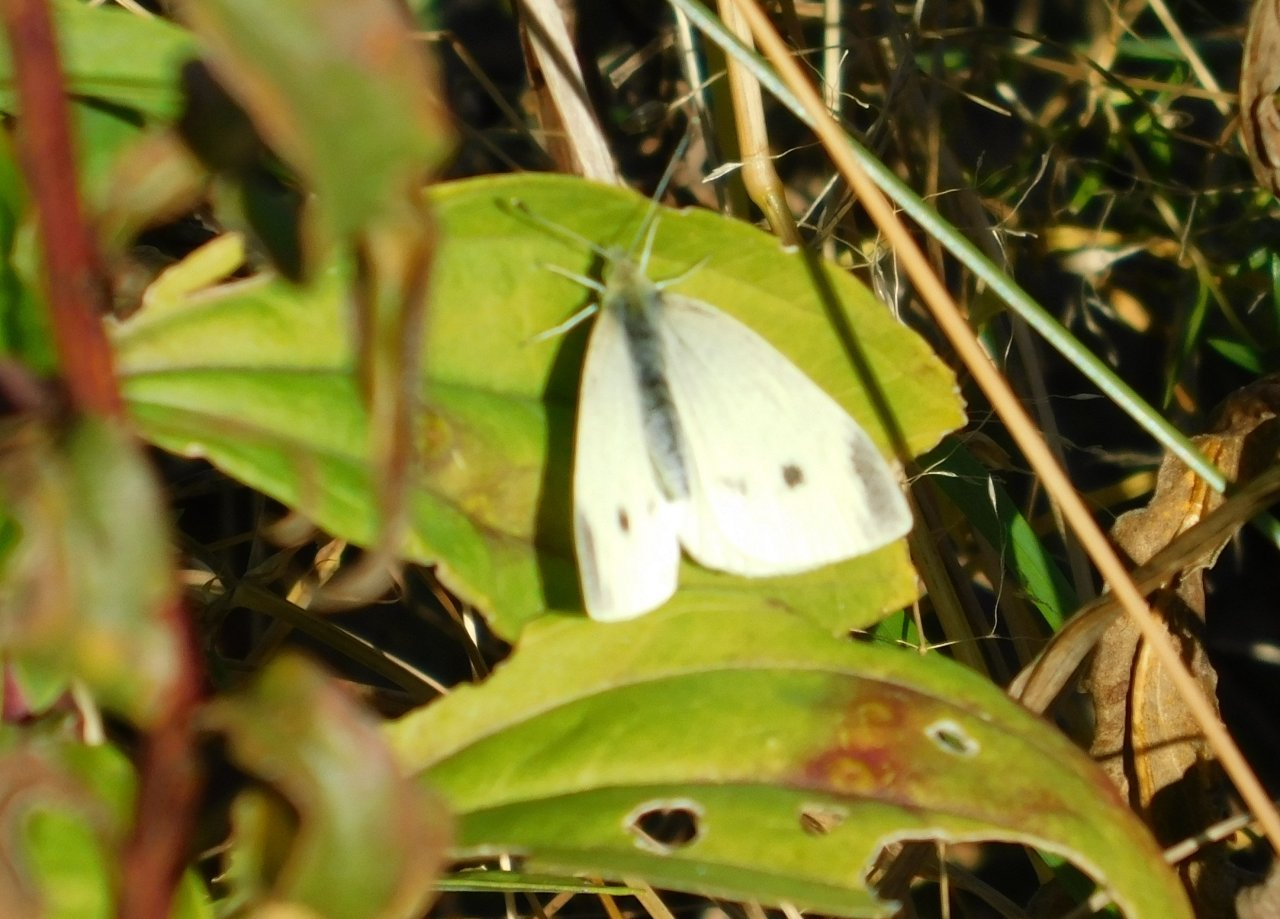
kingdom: Animalia
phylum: Arthropoda
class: Insecta
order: Lepidoptera
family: Pieridae
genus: Pieris
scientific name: Pieris rapae
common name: Cabbage White
